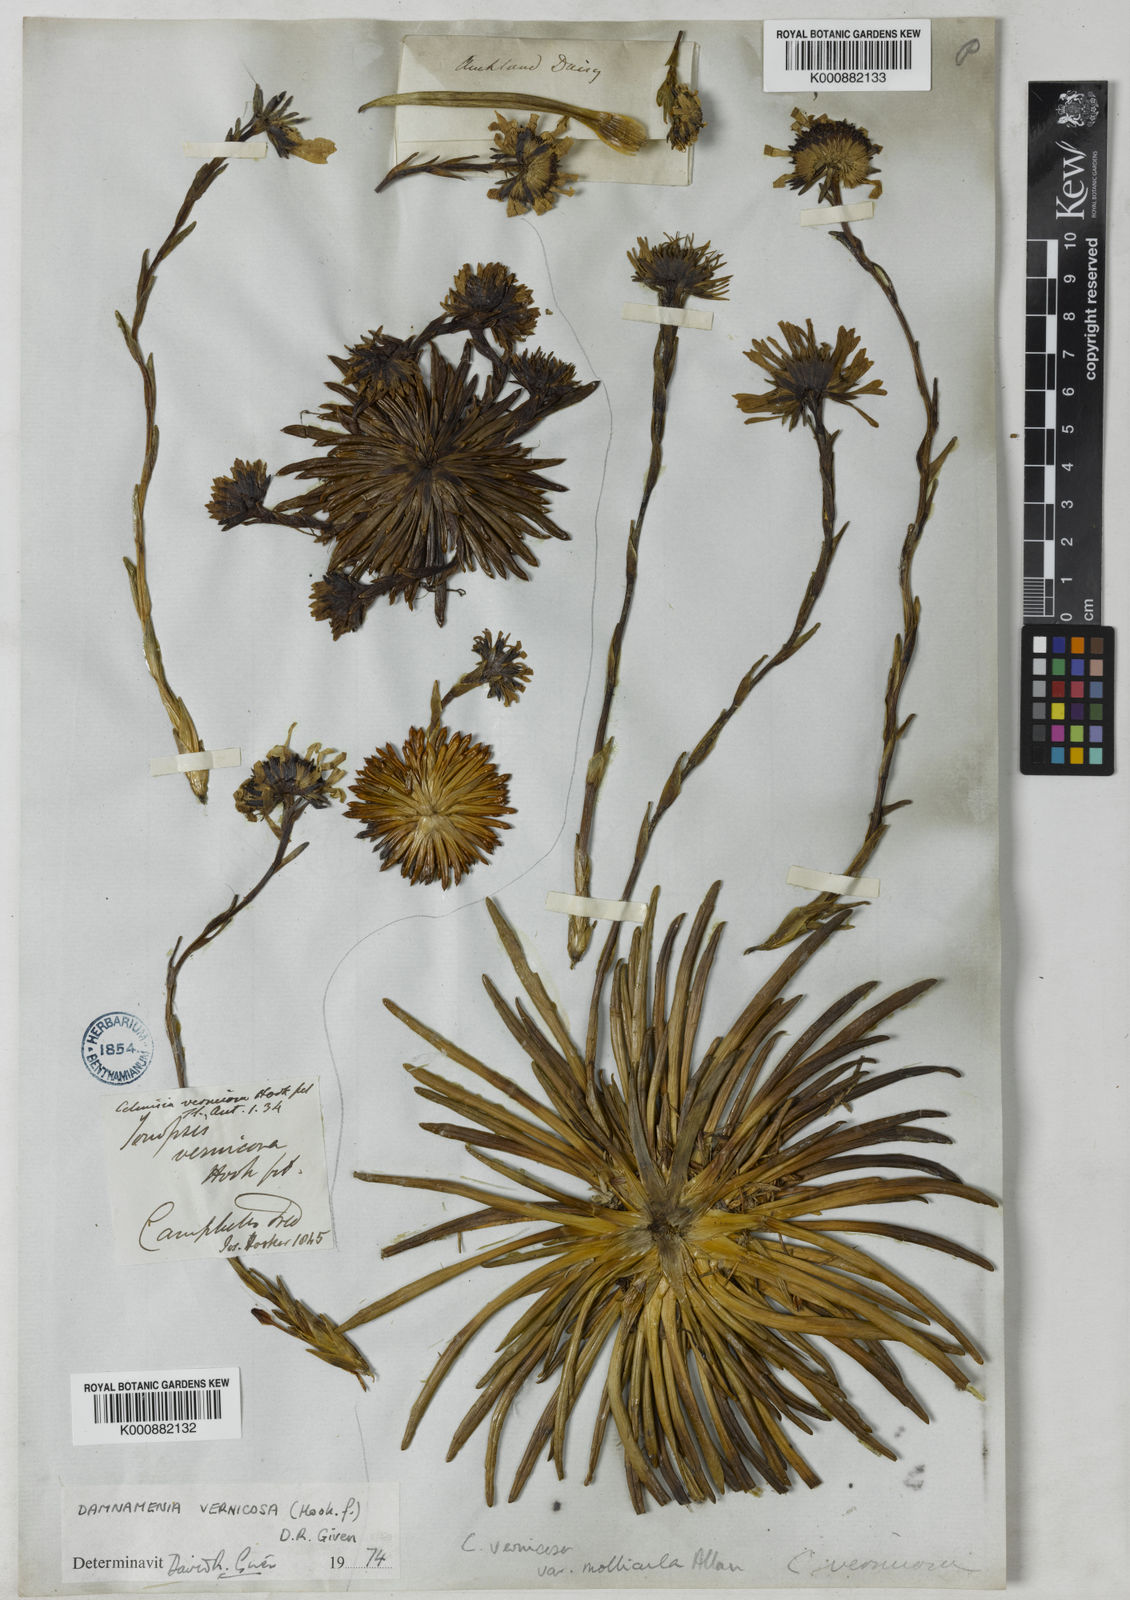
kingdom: Plantae
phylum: Tracheophyta
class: Magnoliopsida
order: Asterales
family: Asteraceae
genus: Damnamenia
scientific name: Damnamenia vernicosa
